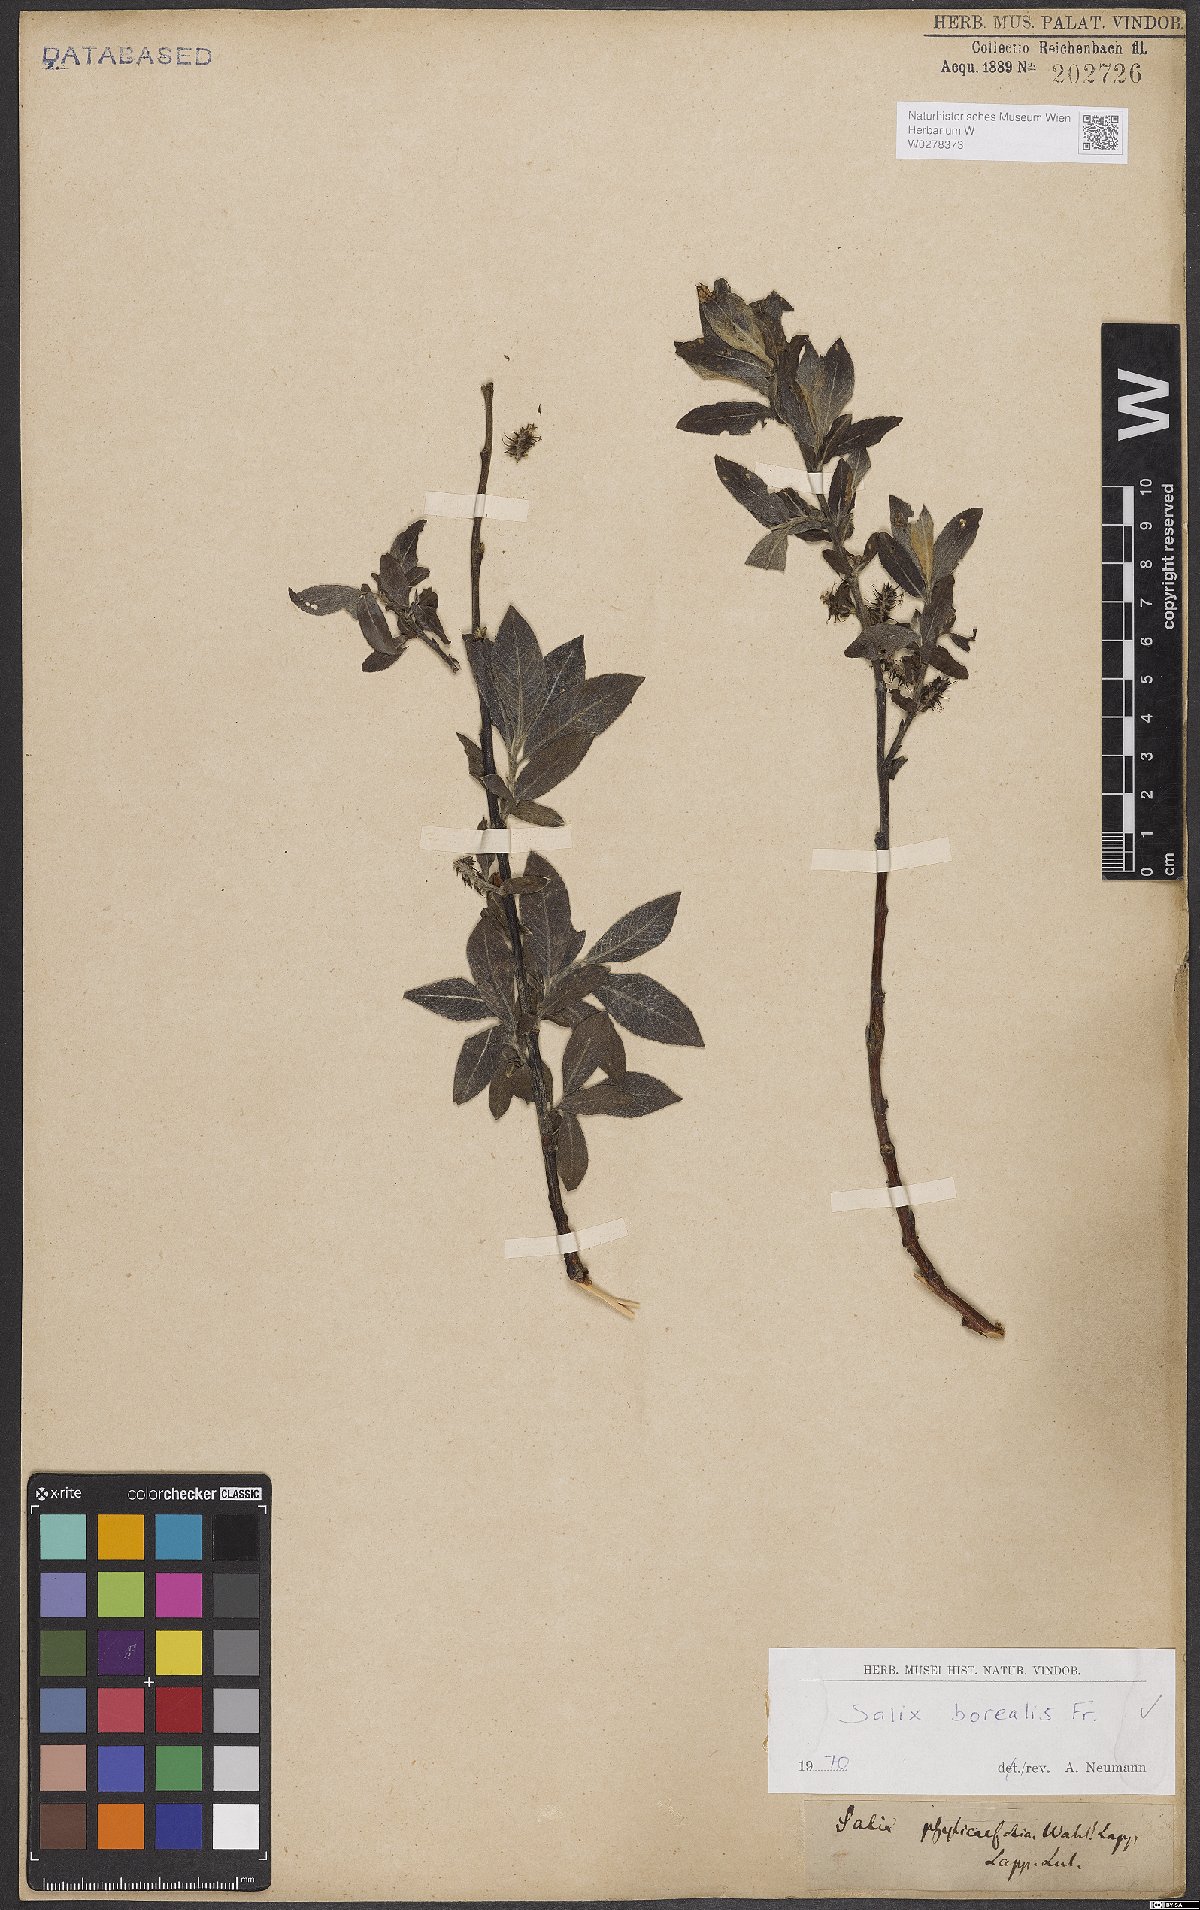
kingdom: Plantae
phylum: Tracheophyta
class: Magnoliopsida
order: Malpighiales
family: Salicaceae
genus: Salix
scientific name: Salix myrsinifolia
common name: Dark-leaved willow
